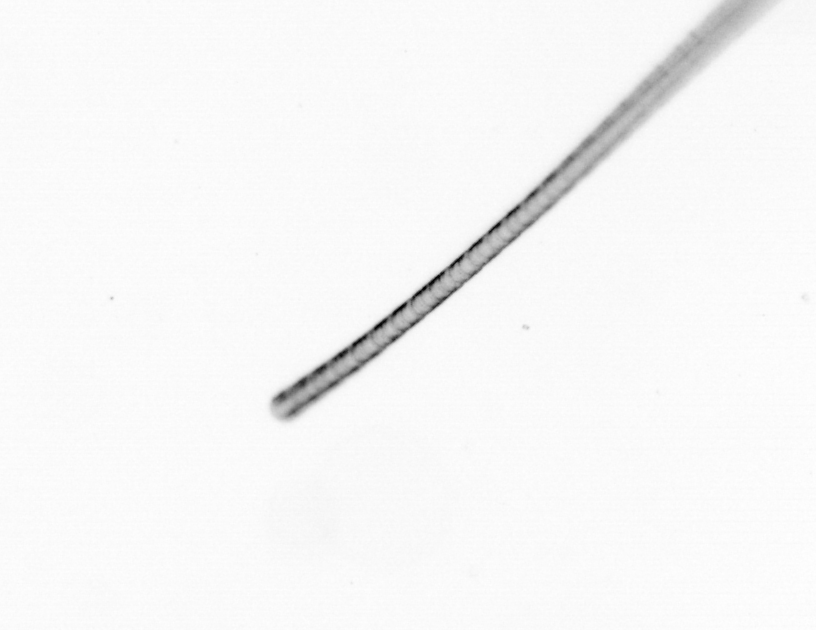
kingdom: Chromista
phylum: Ochrophyta
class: Bacillariophyceae
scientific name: Bacillariophyceae
